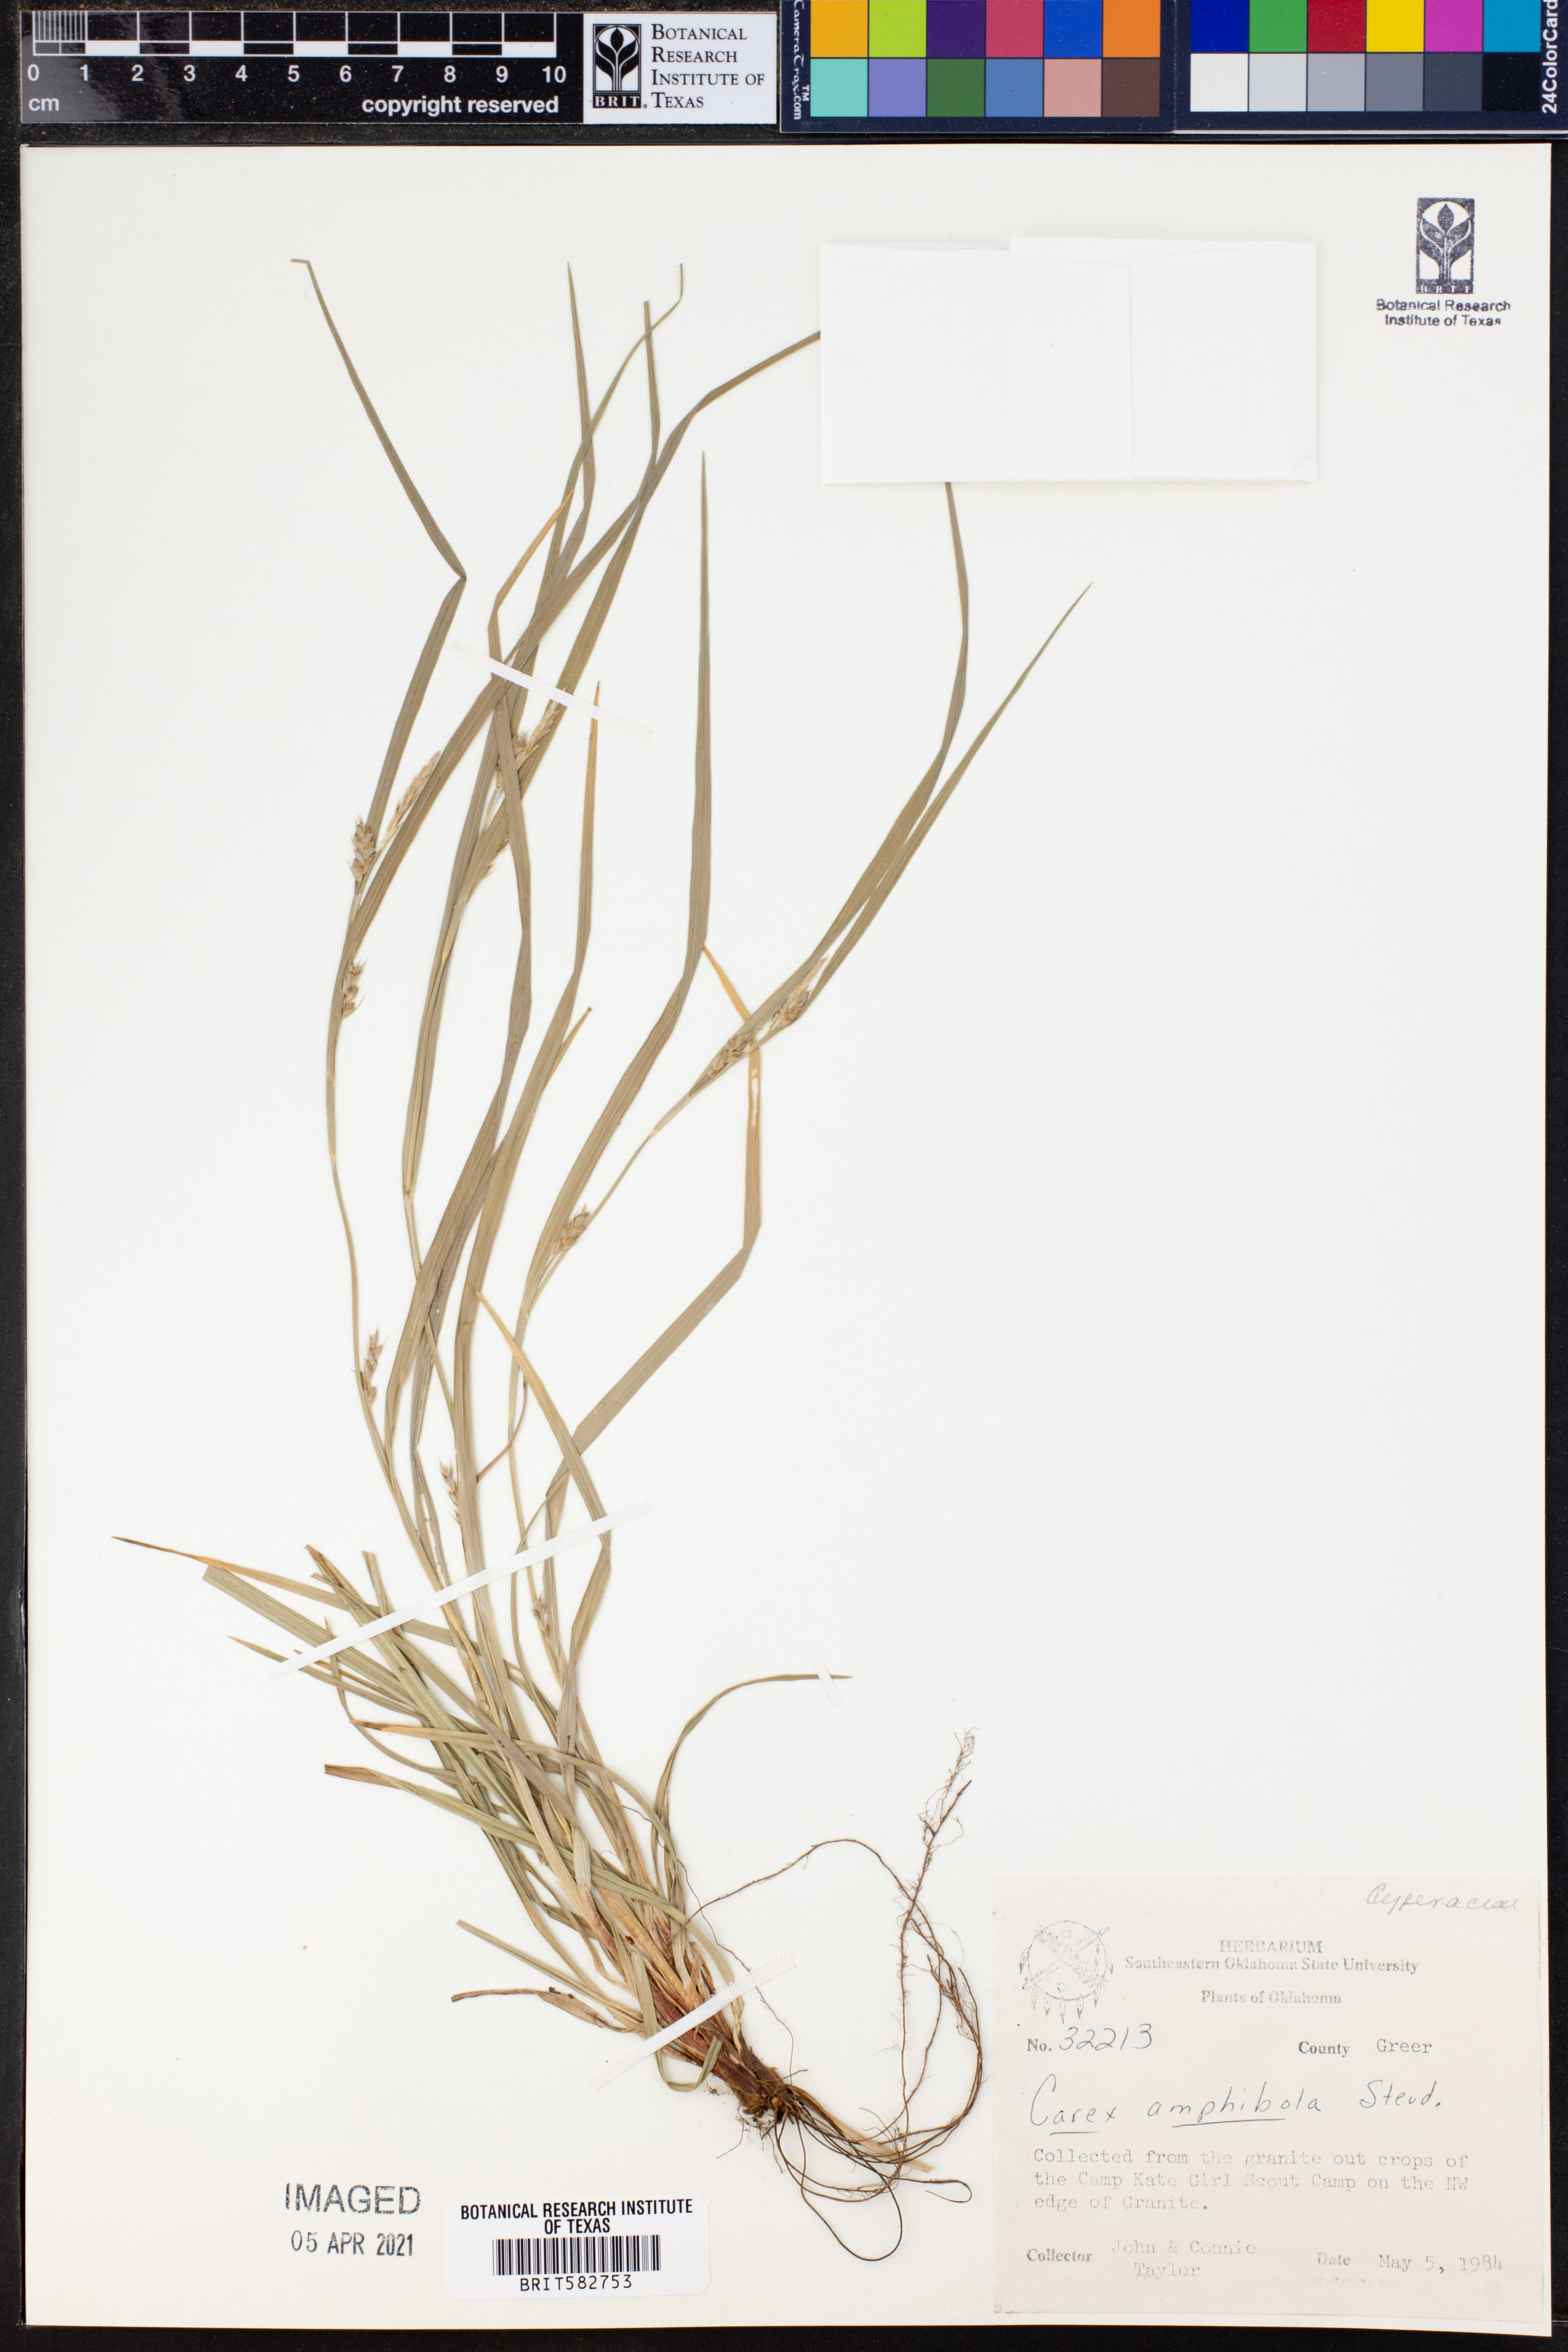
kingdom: Plantae
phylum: Tracheophyta
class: Liliopsida
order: Poales
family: Cyperaceae
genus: Carex
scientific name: Carex amphibola
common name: Amphibious sedge
